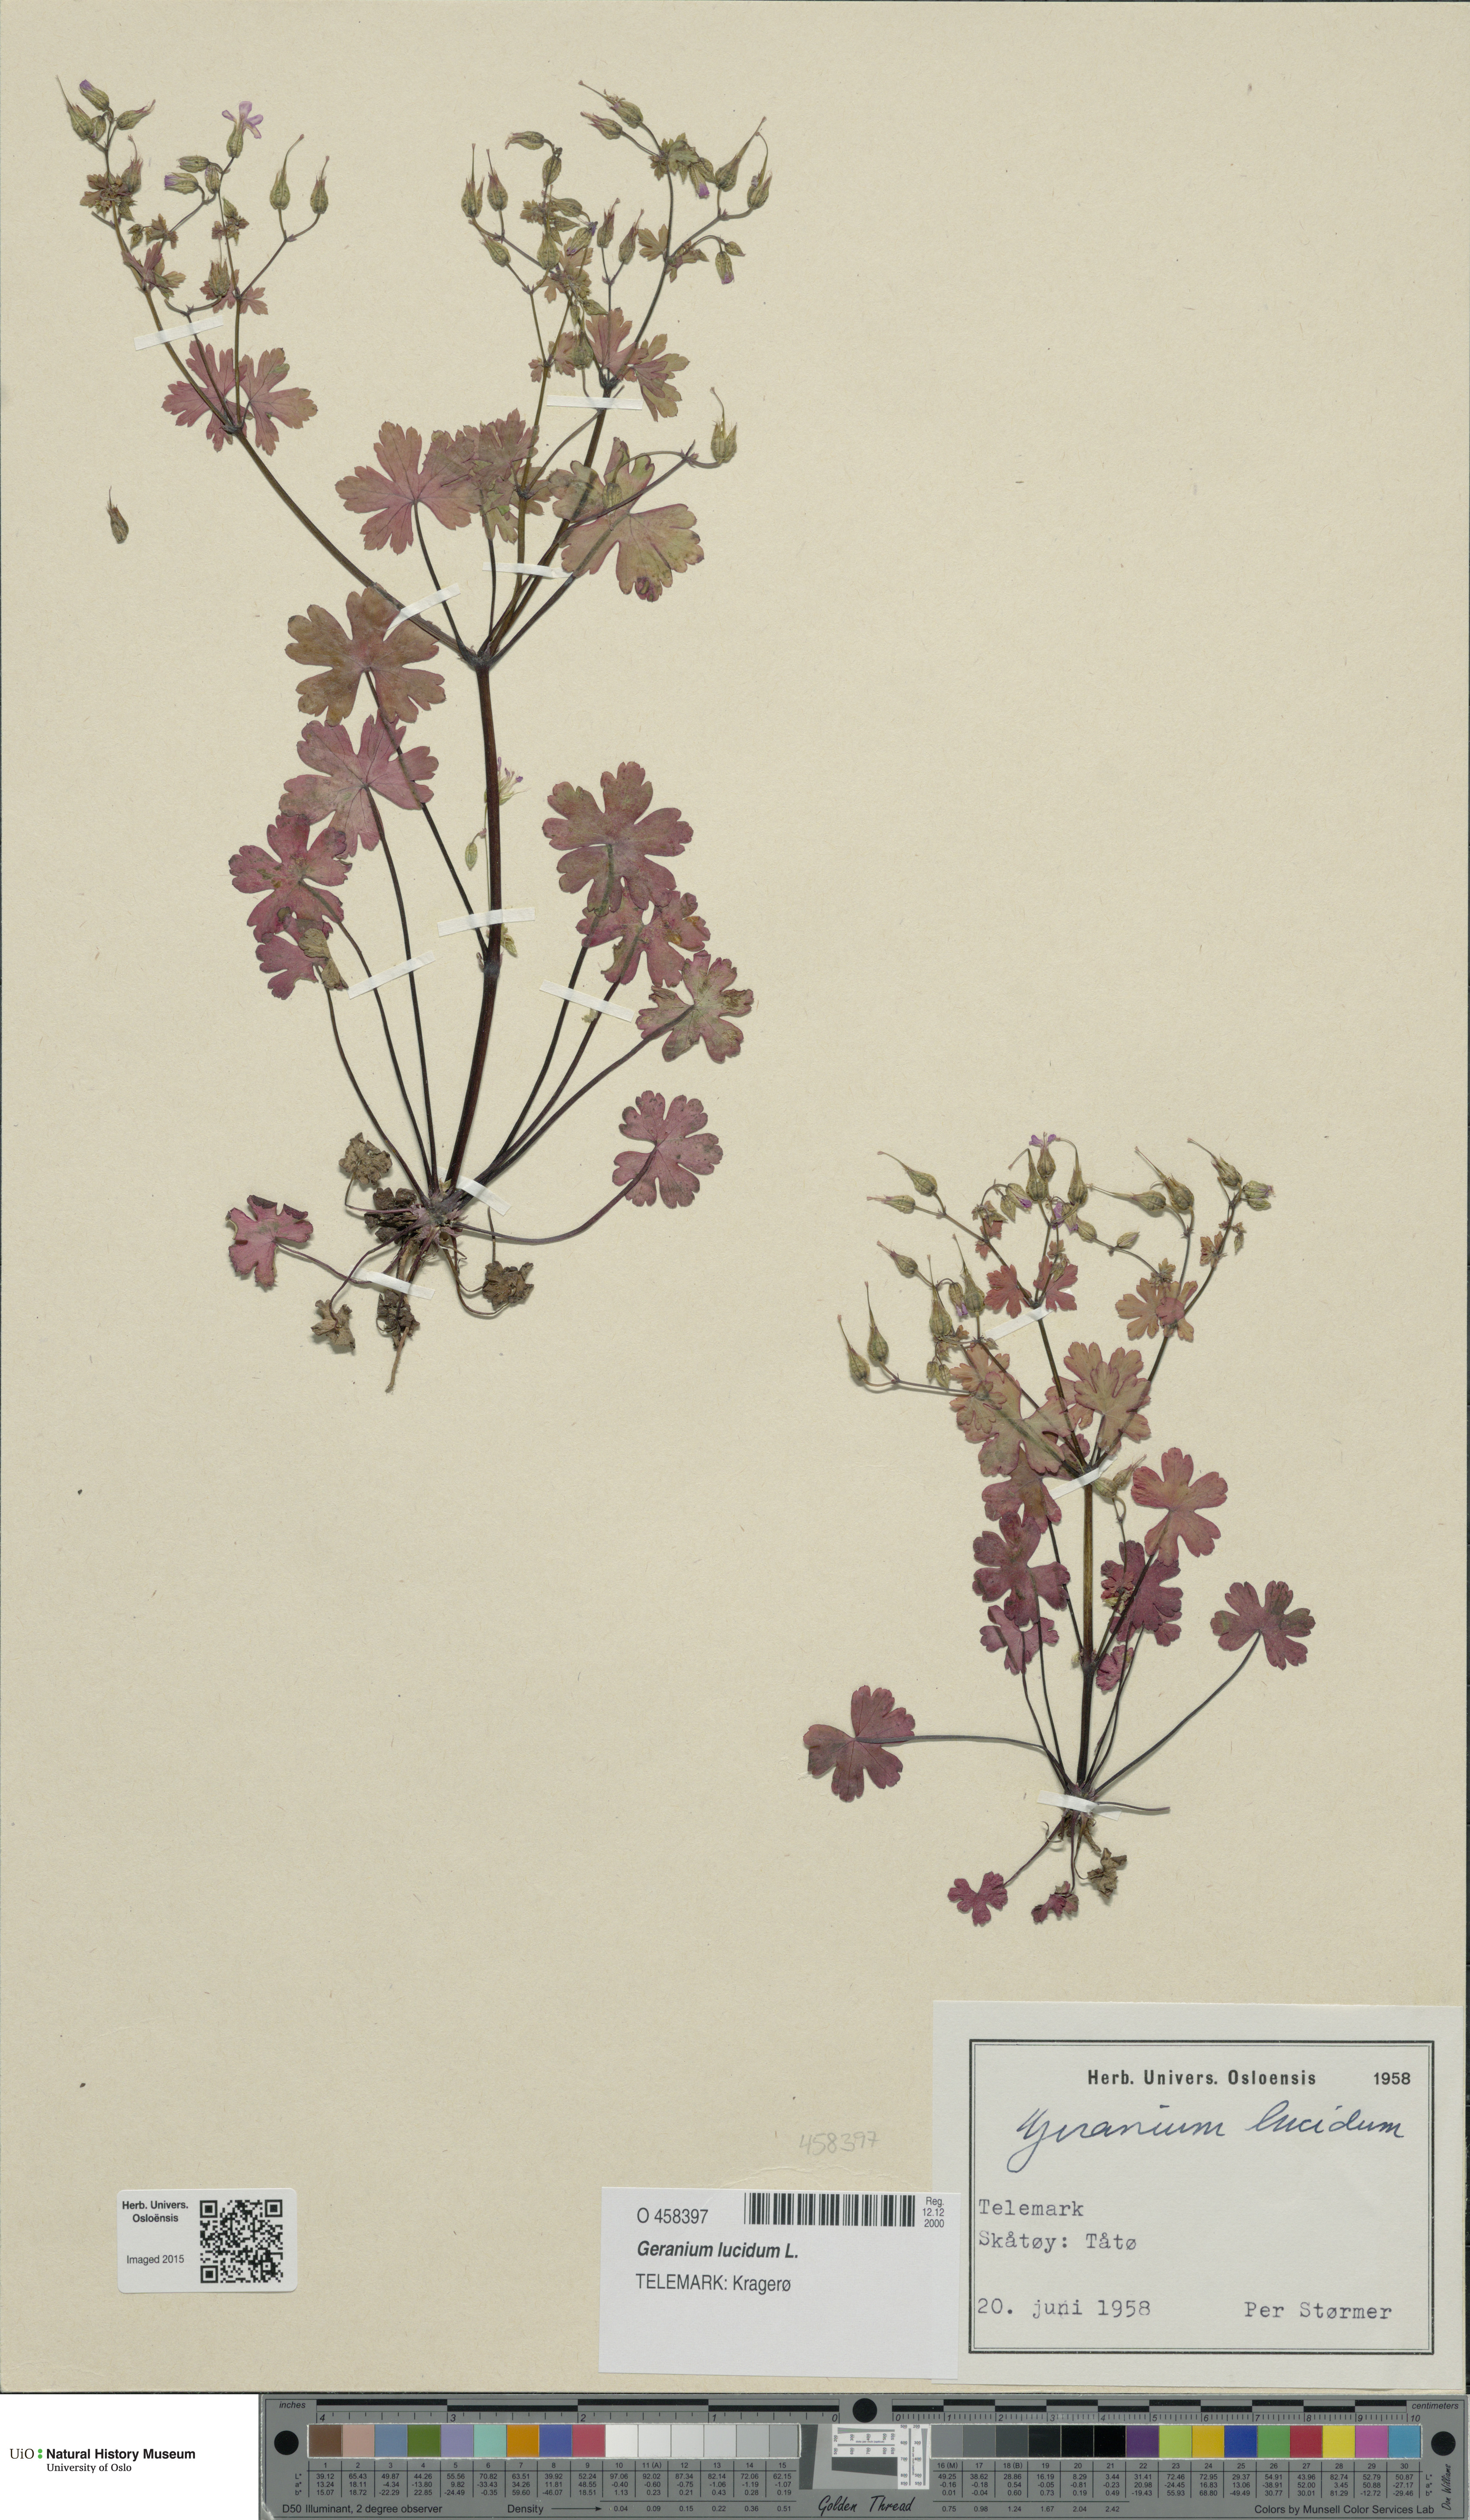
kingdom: Plantae
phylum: Tracheophyta
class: Magnoliopsida
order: Geraniales
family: Geraniaceae
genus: Geranium
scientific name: Geranium lucidum
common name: Shining crane's-bill
